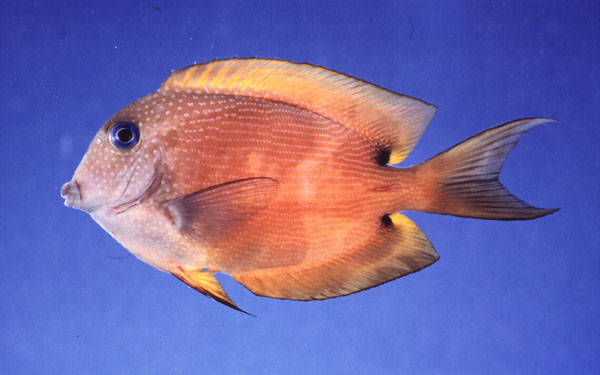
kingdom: Animalia
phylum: Chordata
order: Perciformes
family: Acanthuridae
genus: Ctenochaetus
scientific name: Ctenochaetus binotatus
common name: Two-spot bristletooth
